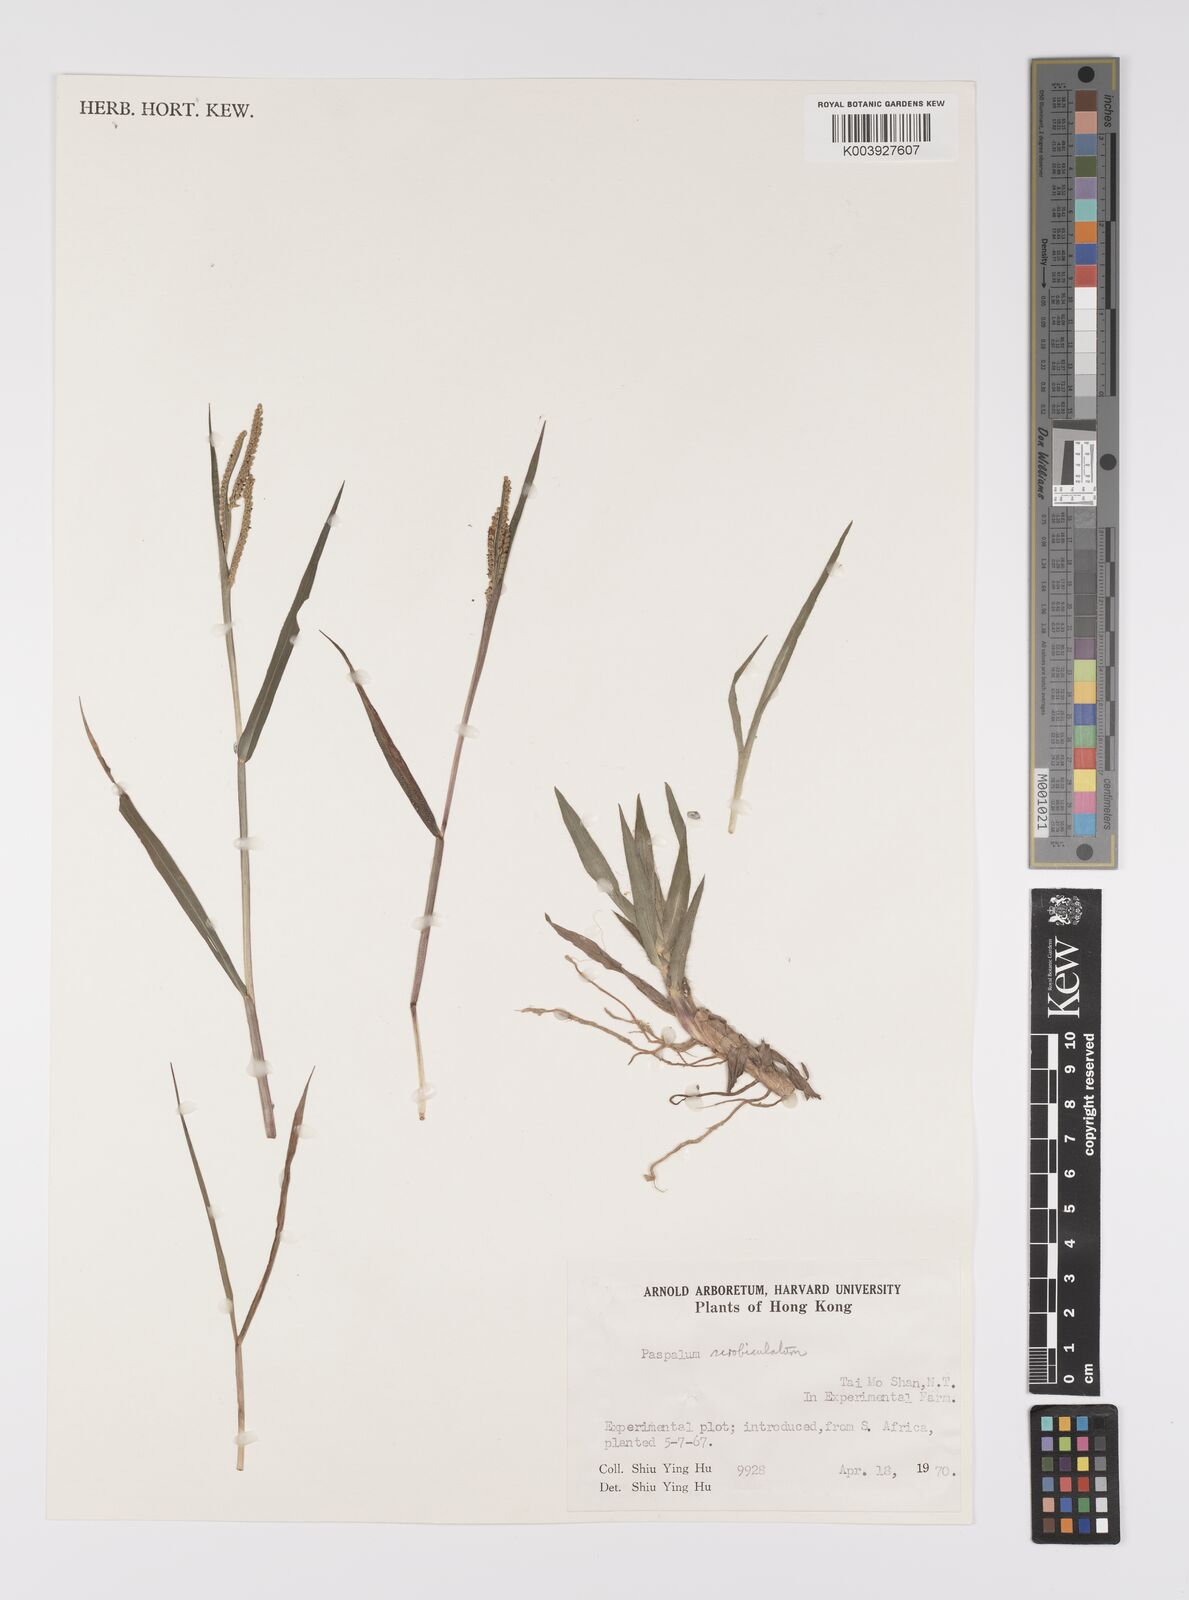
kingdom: Plantae
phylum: Tracheophyta
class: Liliopsida
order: Poales
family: Poaceae
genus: Paspalum
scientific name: Paspalum scrobiculatum
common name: Kodo millet
